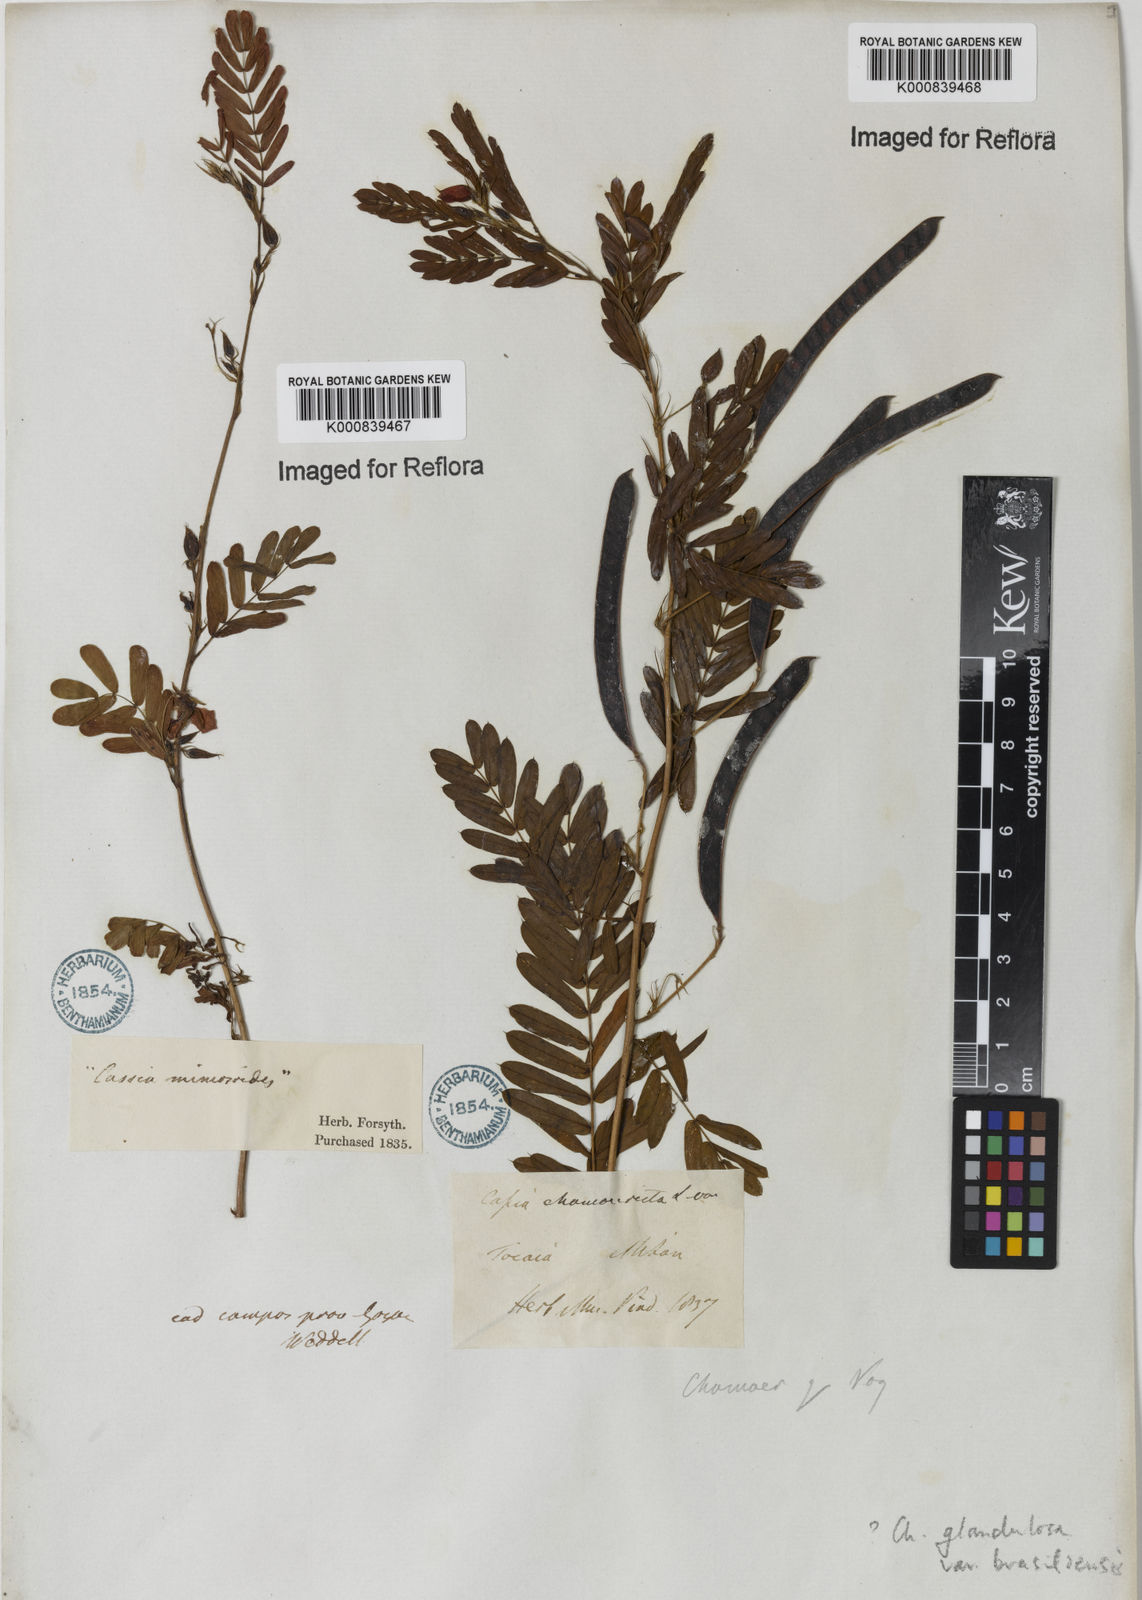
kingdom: Plantae
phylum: Tracheophyta
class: Magnoliopsida
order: Fabales
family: Fabaceae
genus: Chamaecrista
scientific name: Chamaecrista glandulosa
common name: Wild peas
